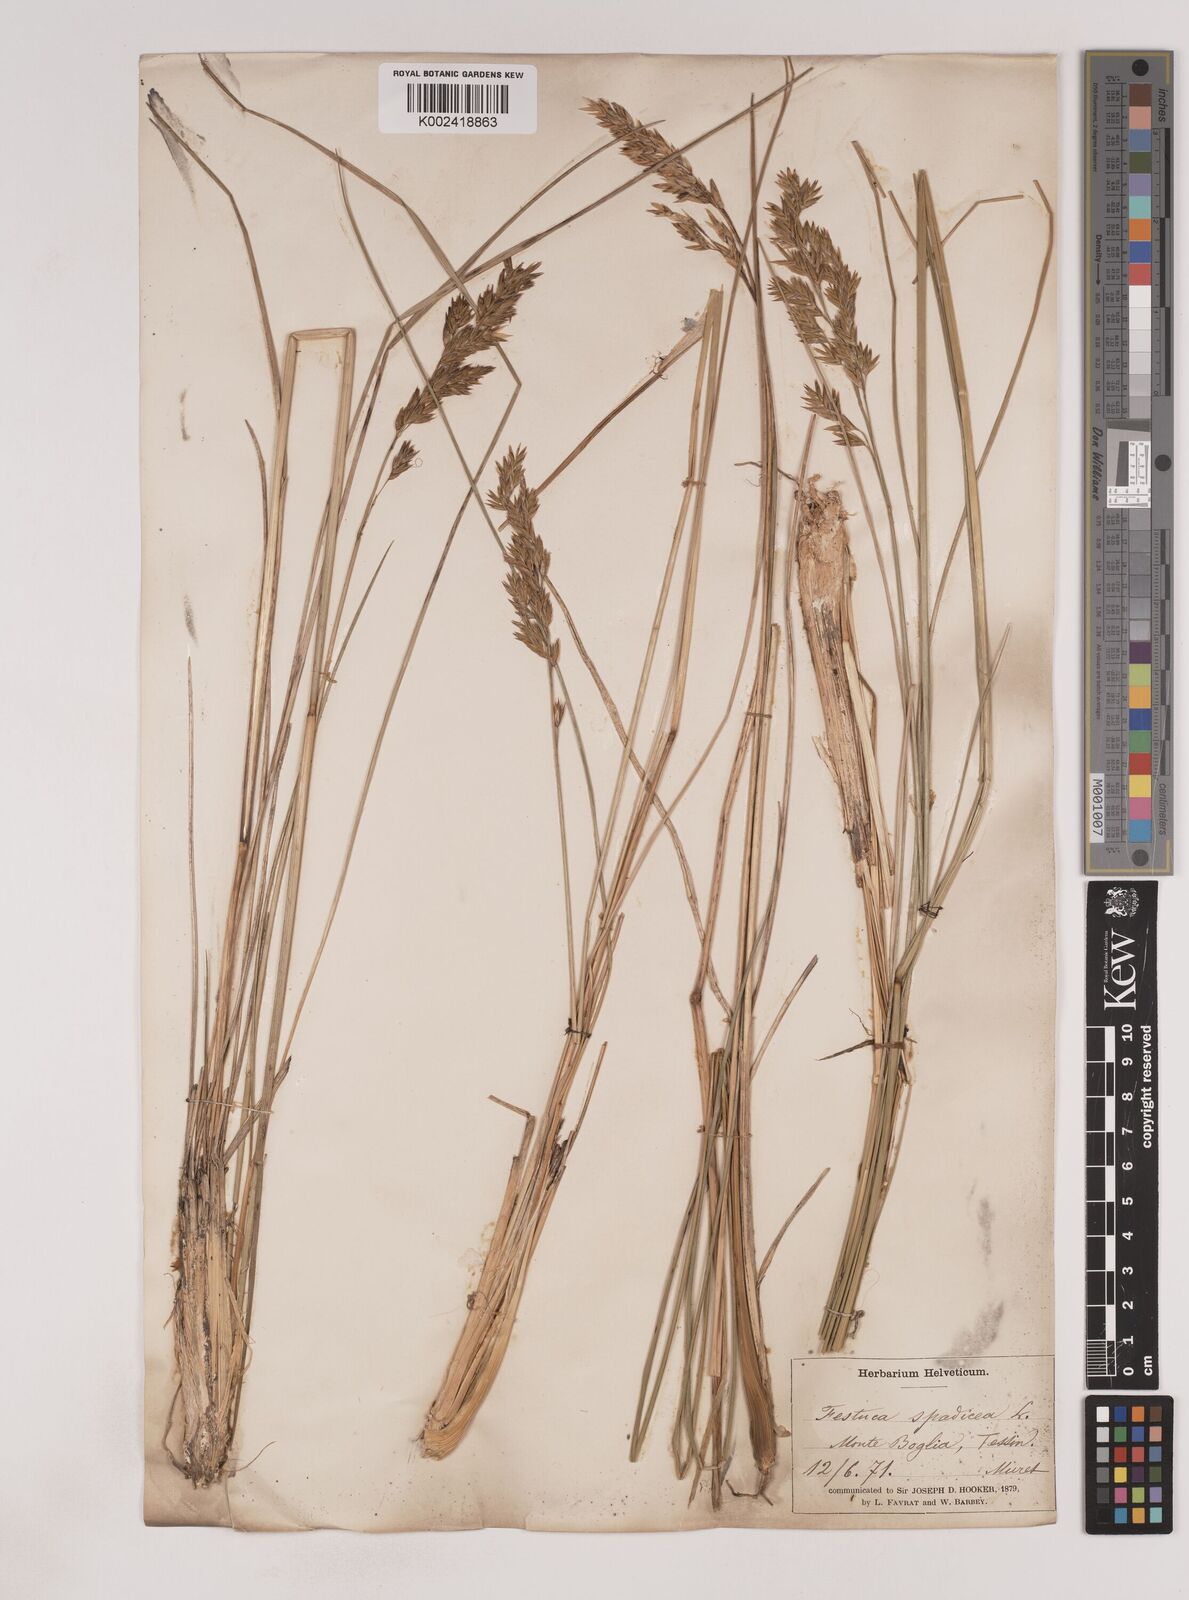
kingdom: Plantae
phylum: Tracheophyta
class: Liliopsida
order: Poales
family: Poaceae
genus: Patzkea
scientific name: Patzkea paniculata
